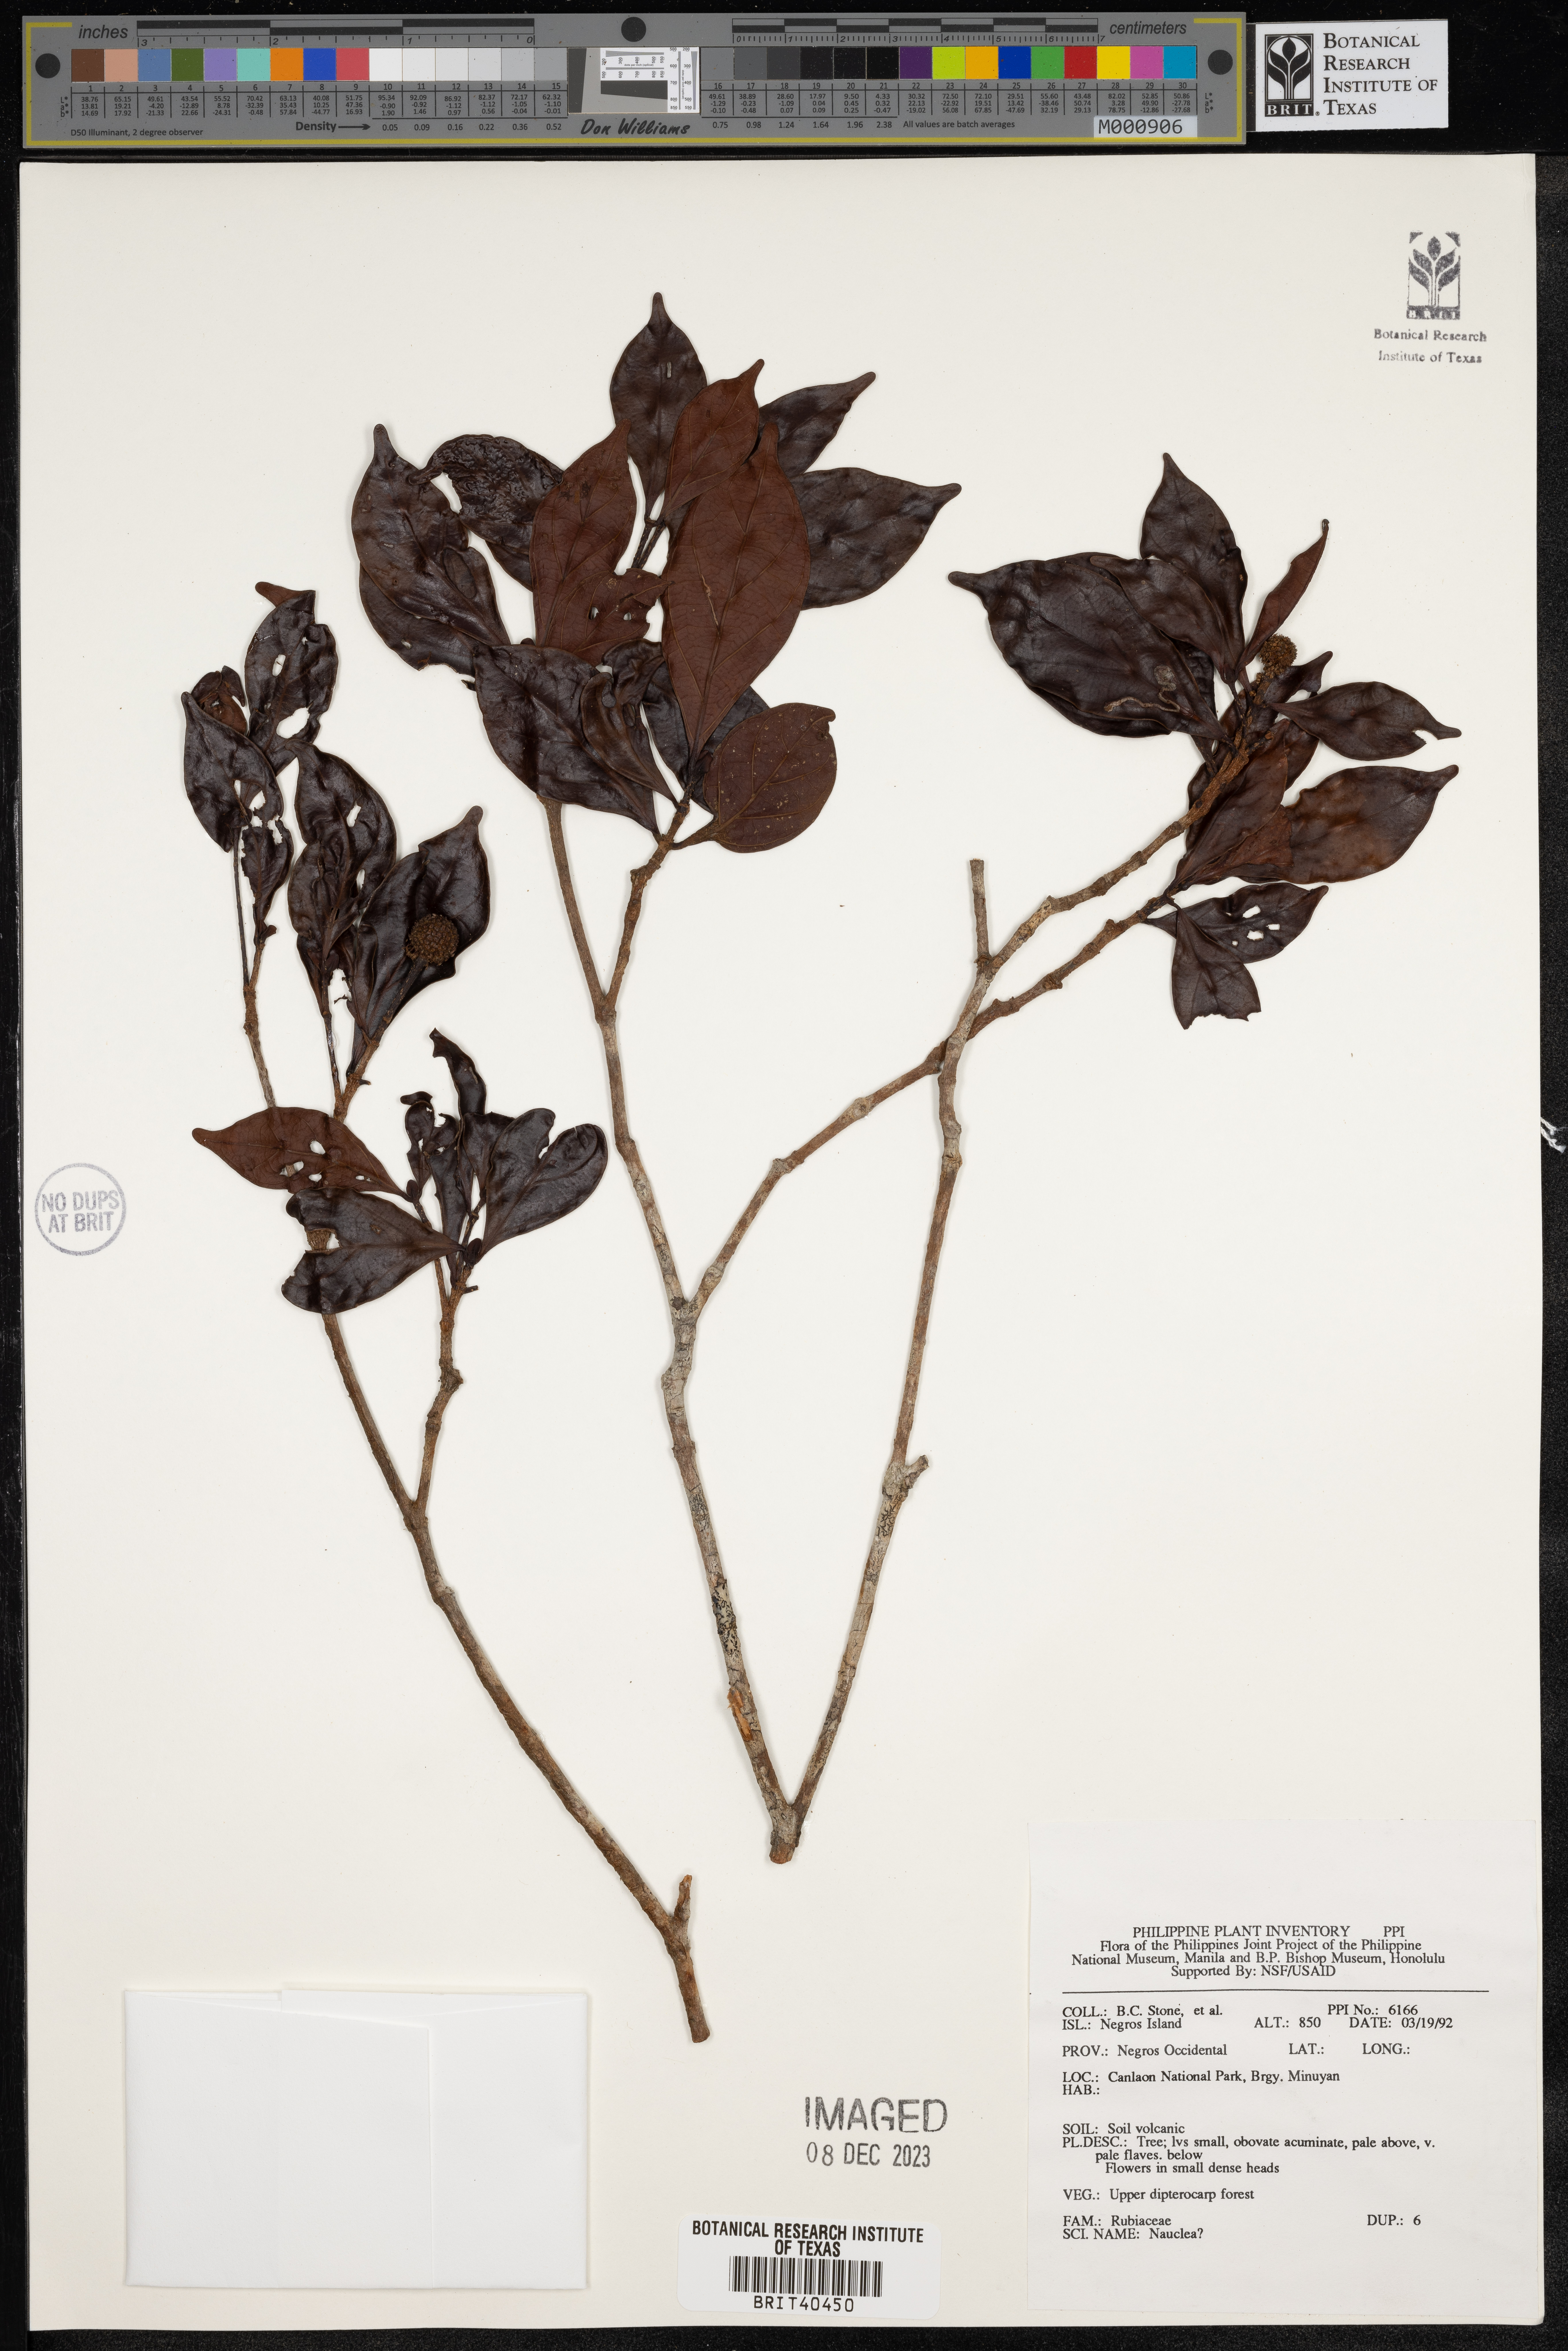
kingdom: Plantae
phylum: Tracheophyta
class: Magnoliopsida
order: Gentianales
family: Rubiaceae
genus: Nauclea
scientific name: Nauclea
